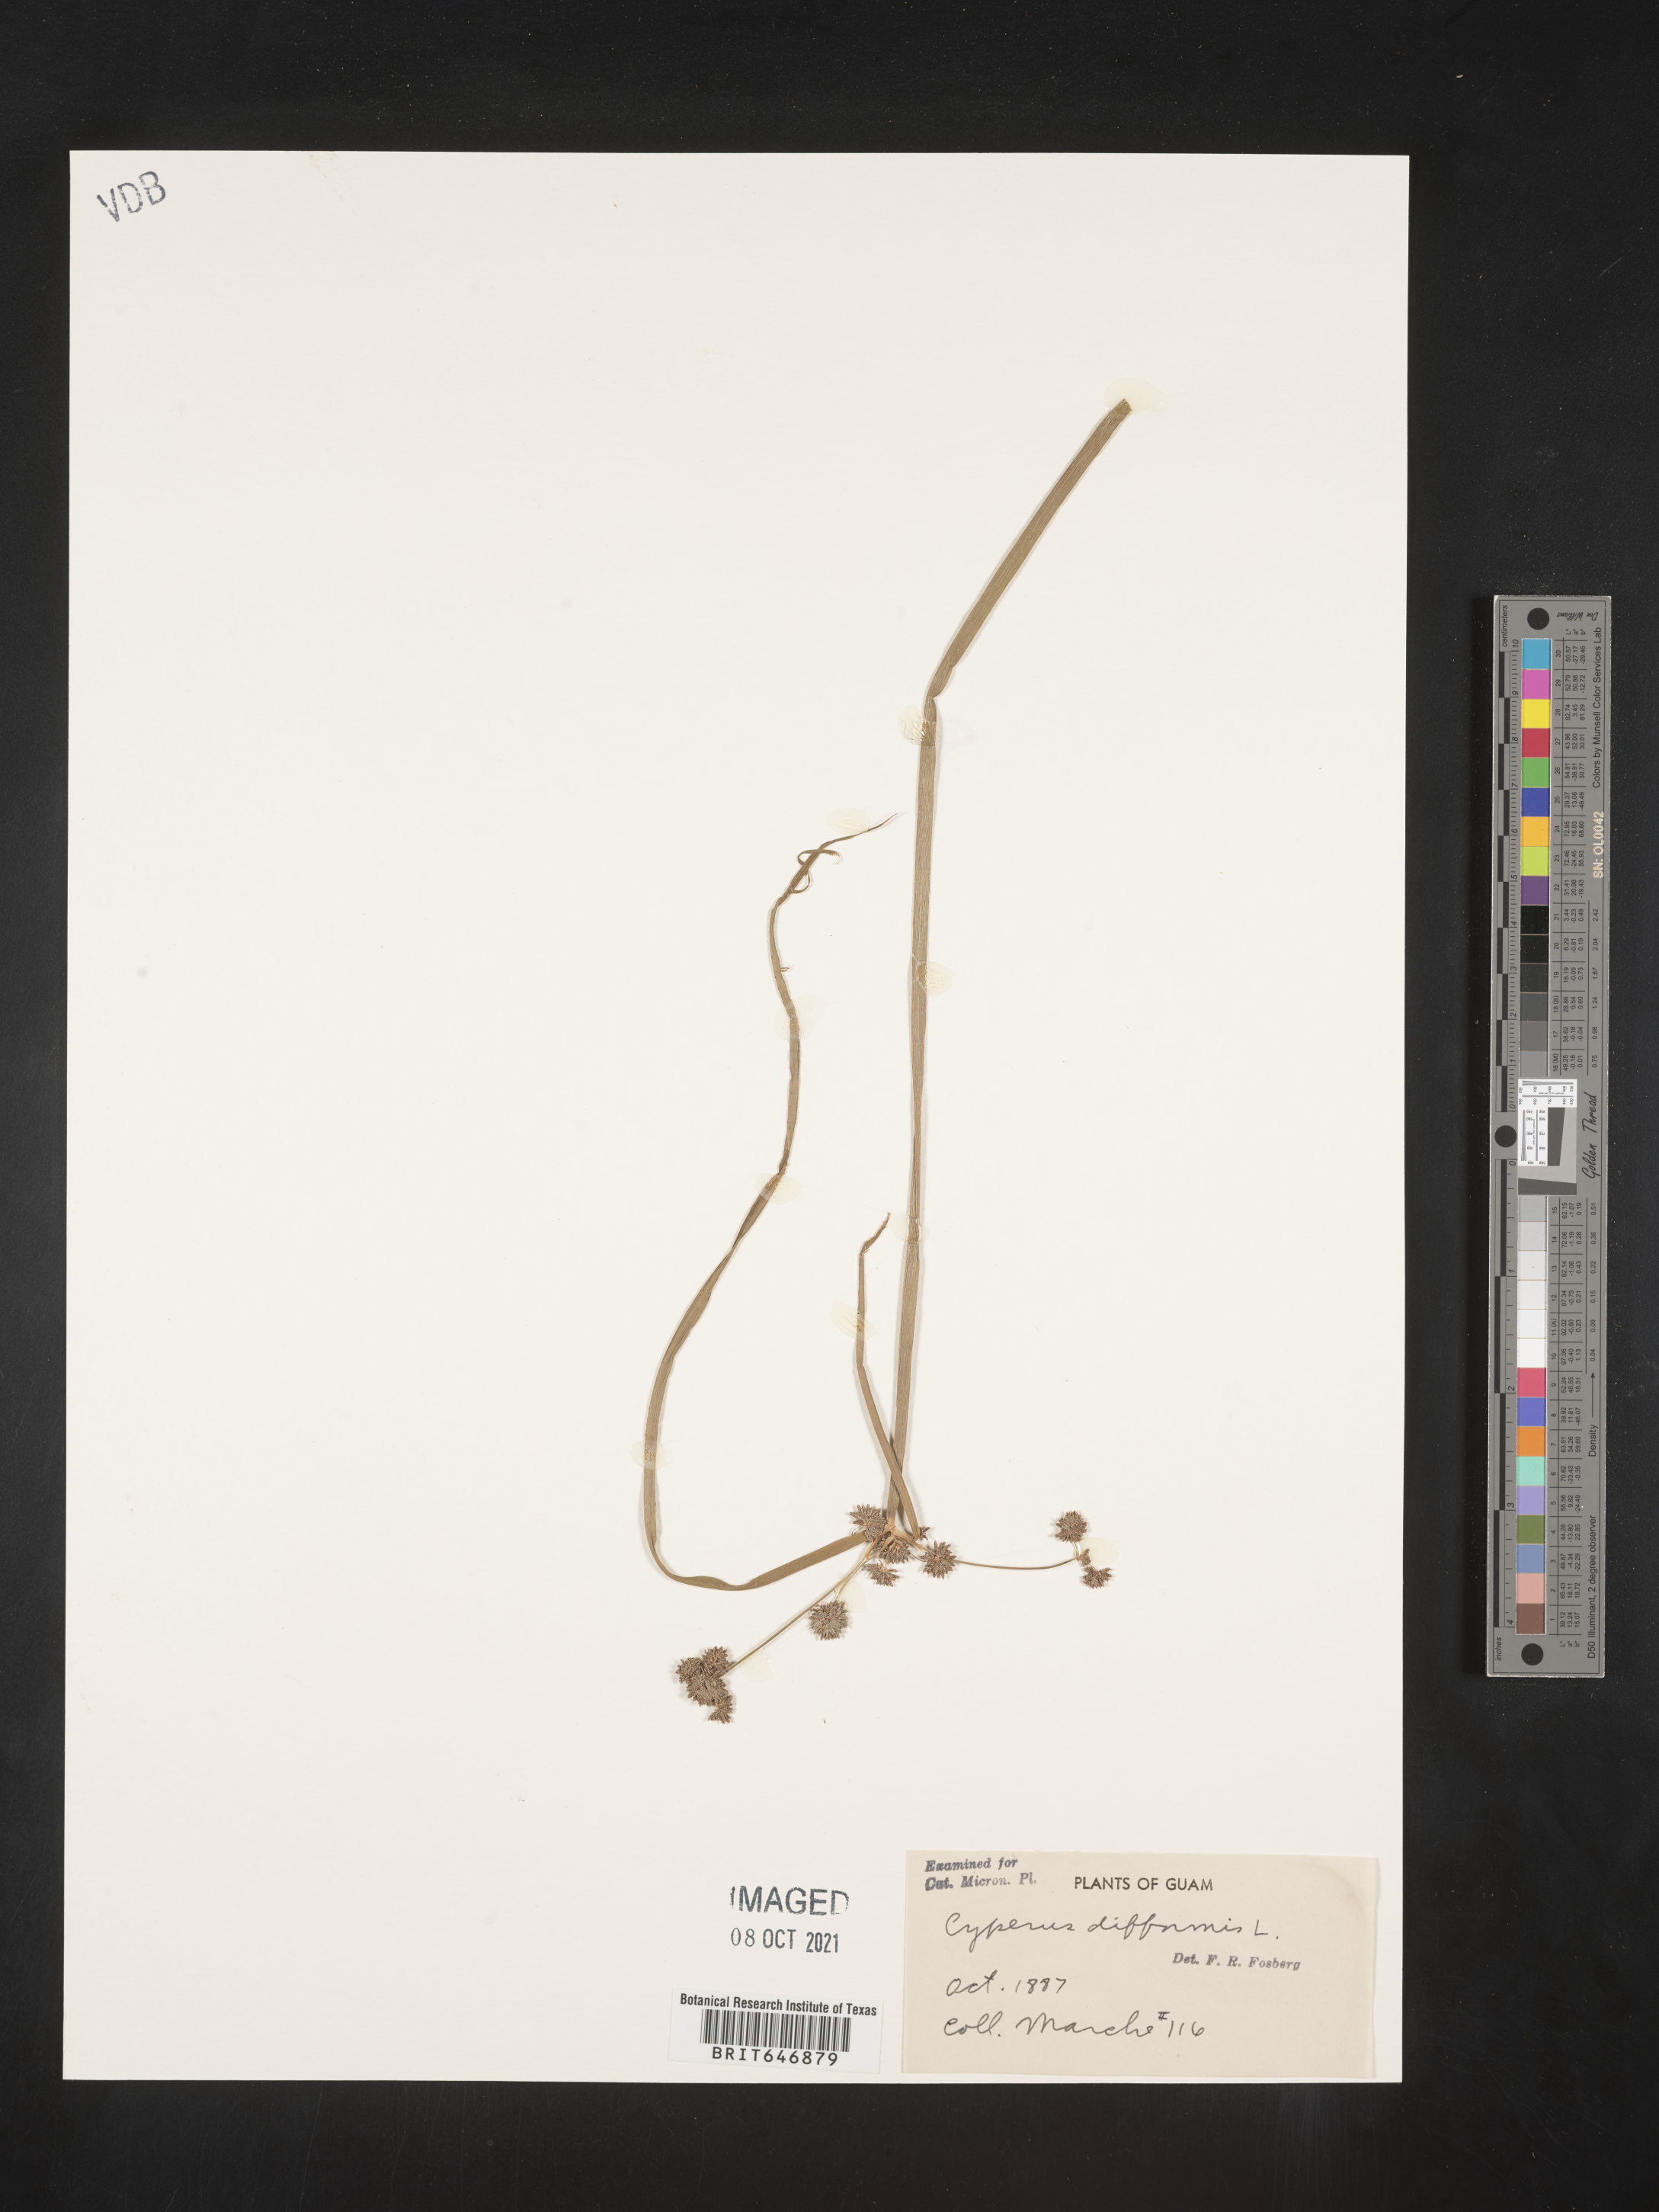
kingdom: Plantae
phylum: Tracheophyta
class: Liliopsida
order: Poales
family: Cyperaceae
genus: Cyperus
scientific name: Cyperus difformis
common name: Variable flatsedge
